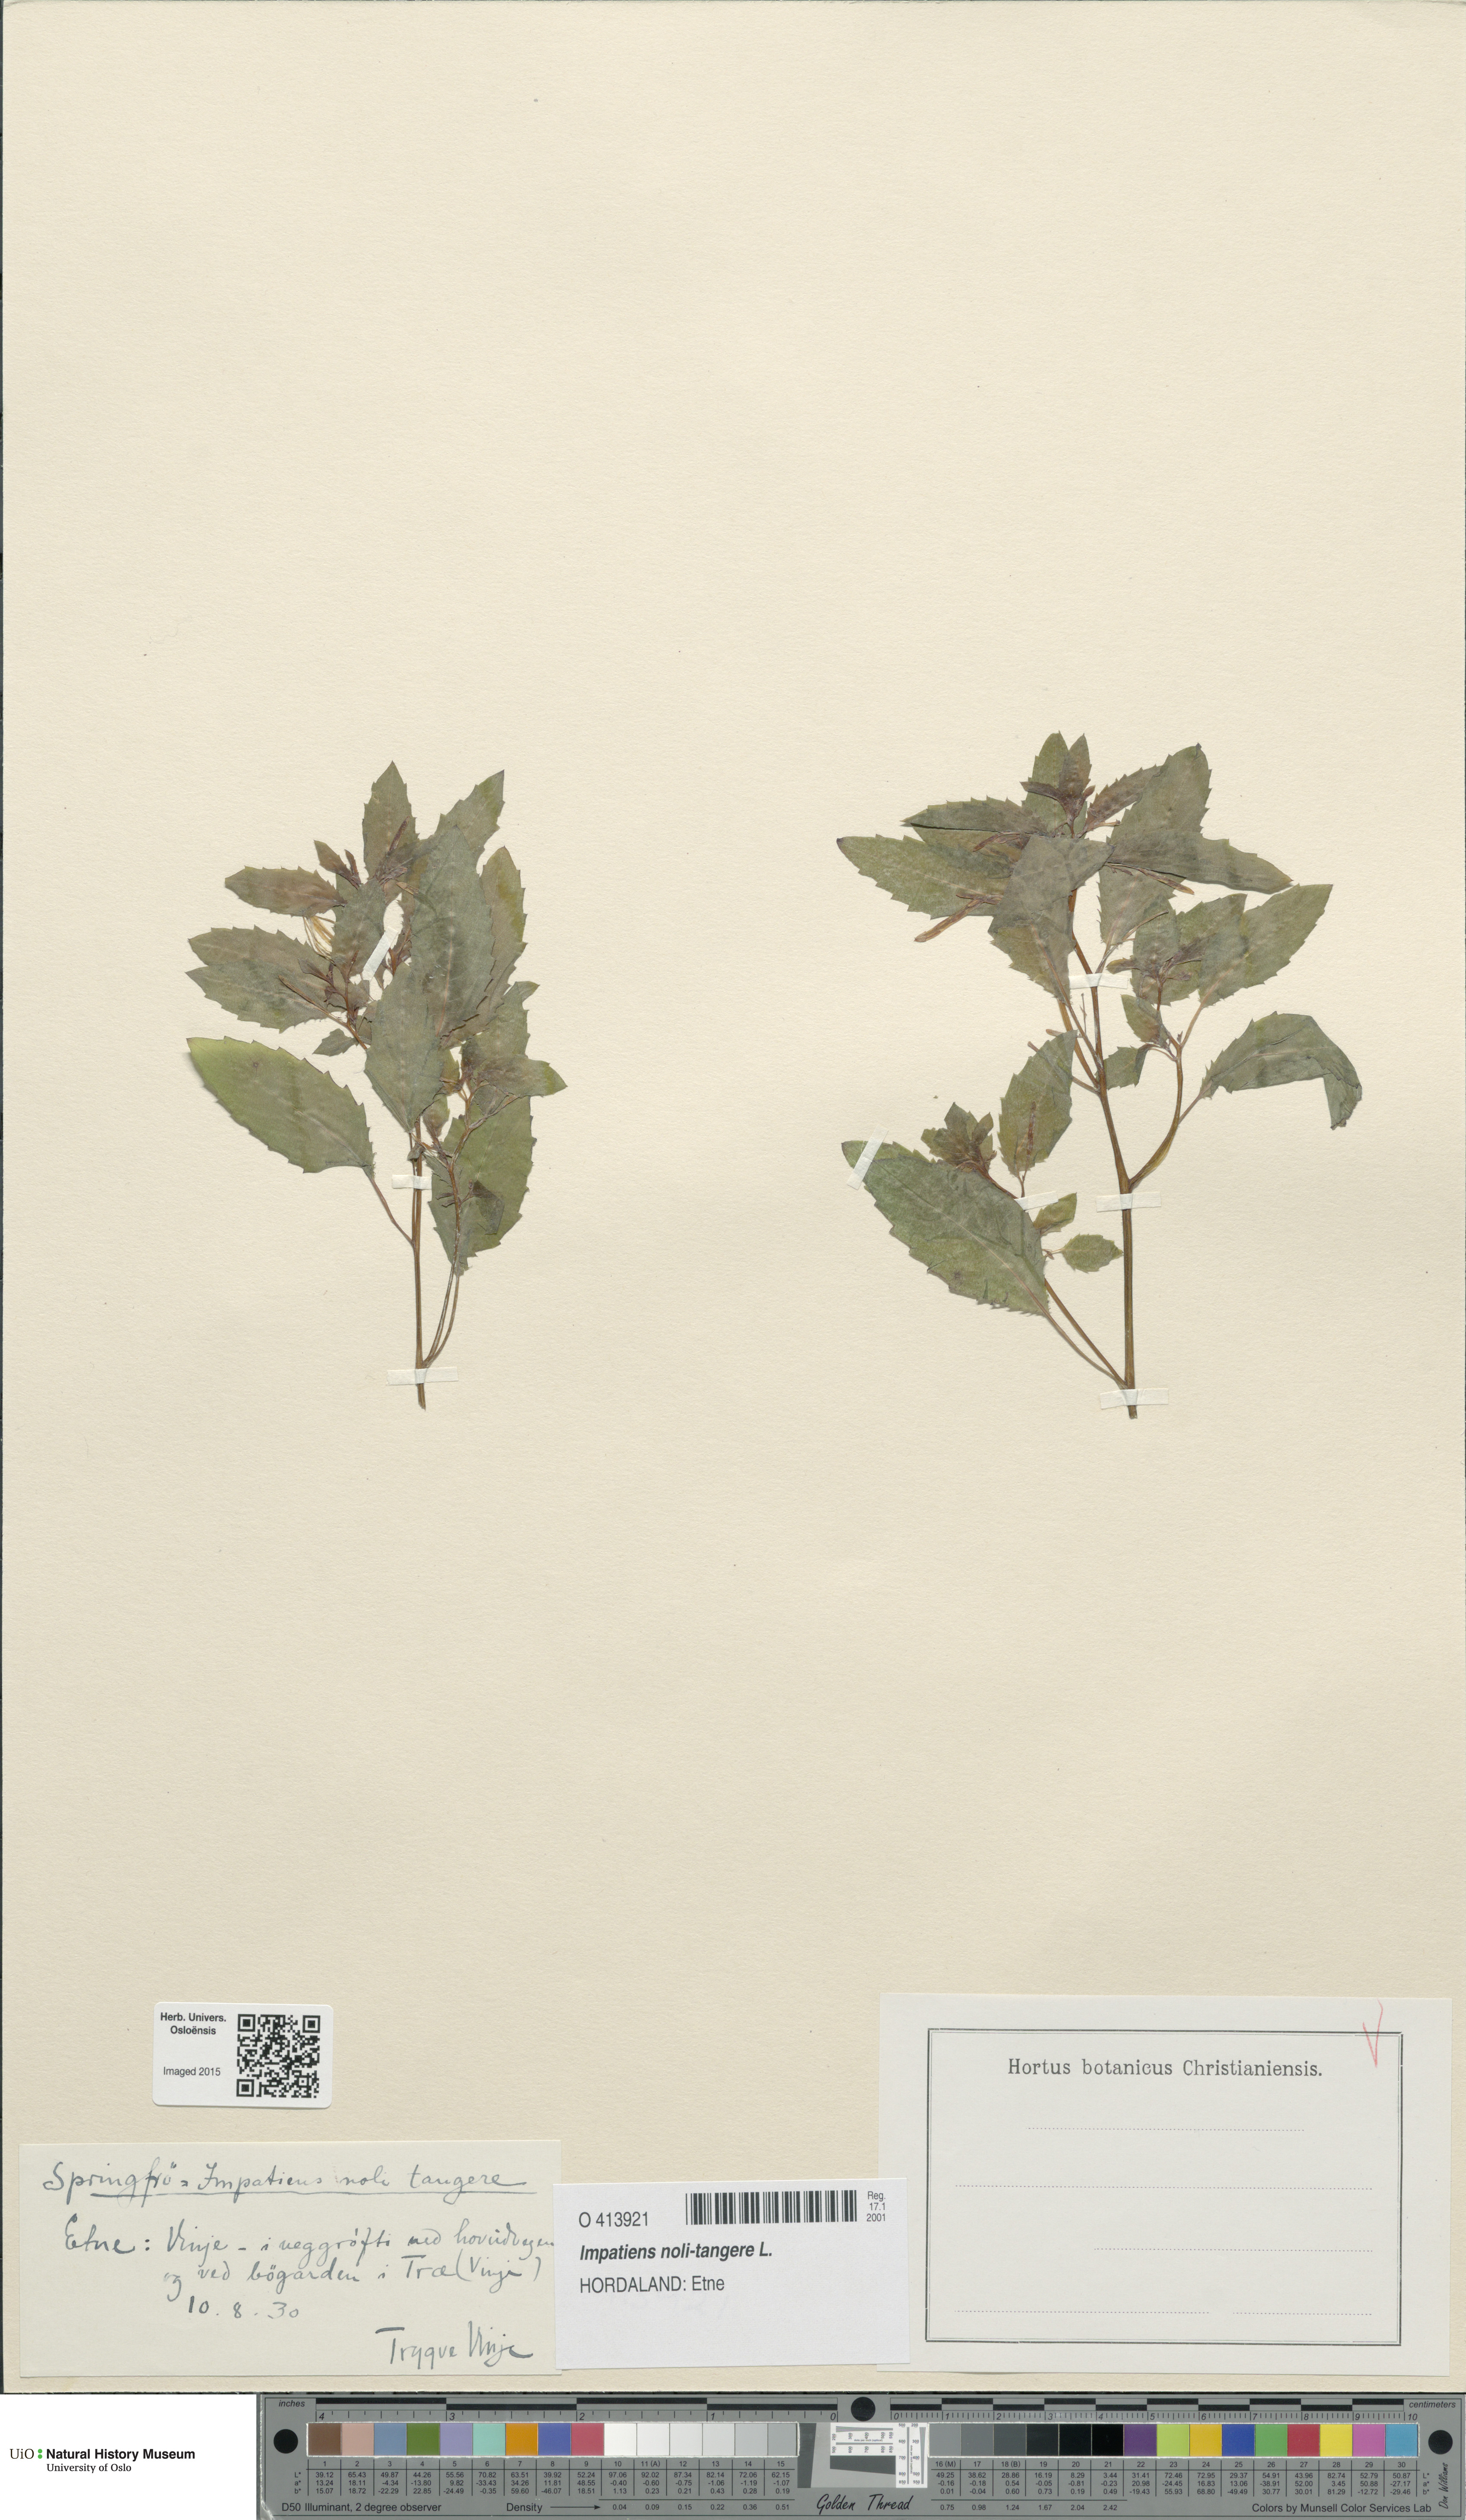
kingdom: Plantae
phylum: Tracheophyta
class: Magnoliopsida
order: Ericales
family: Balsaminaceae
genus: Impatiens
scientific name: Impatiens noli-tangere
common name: Touch-me-not balsam
